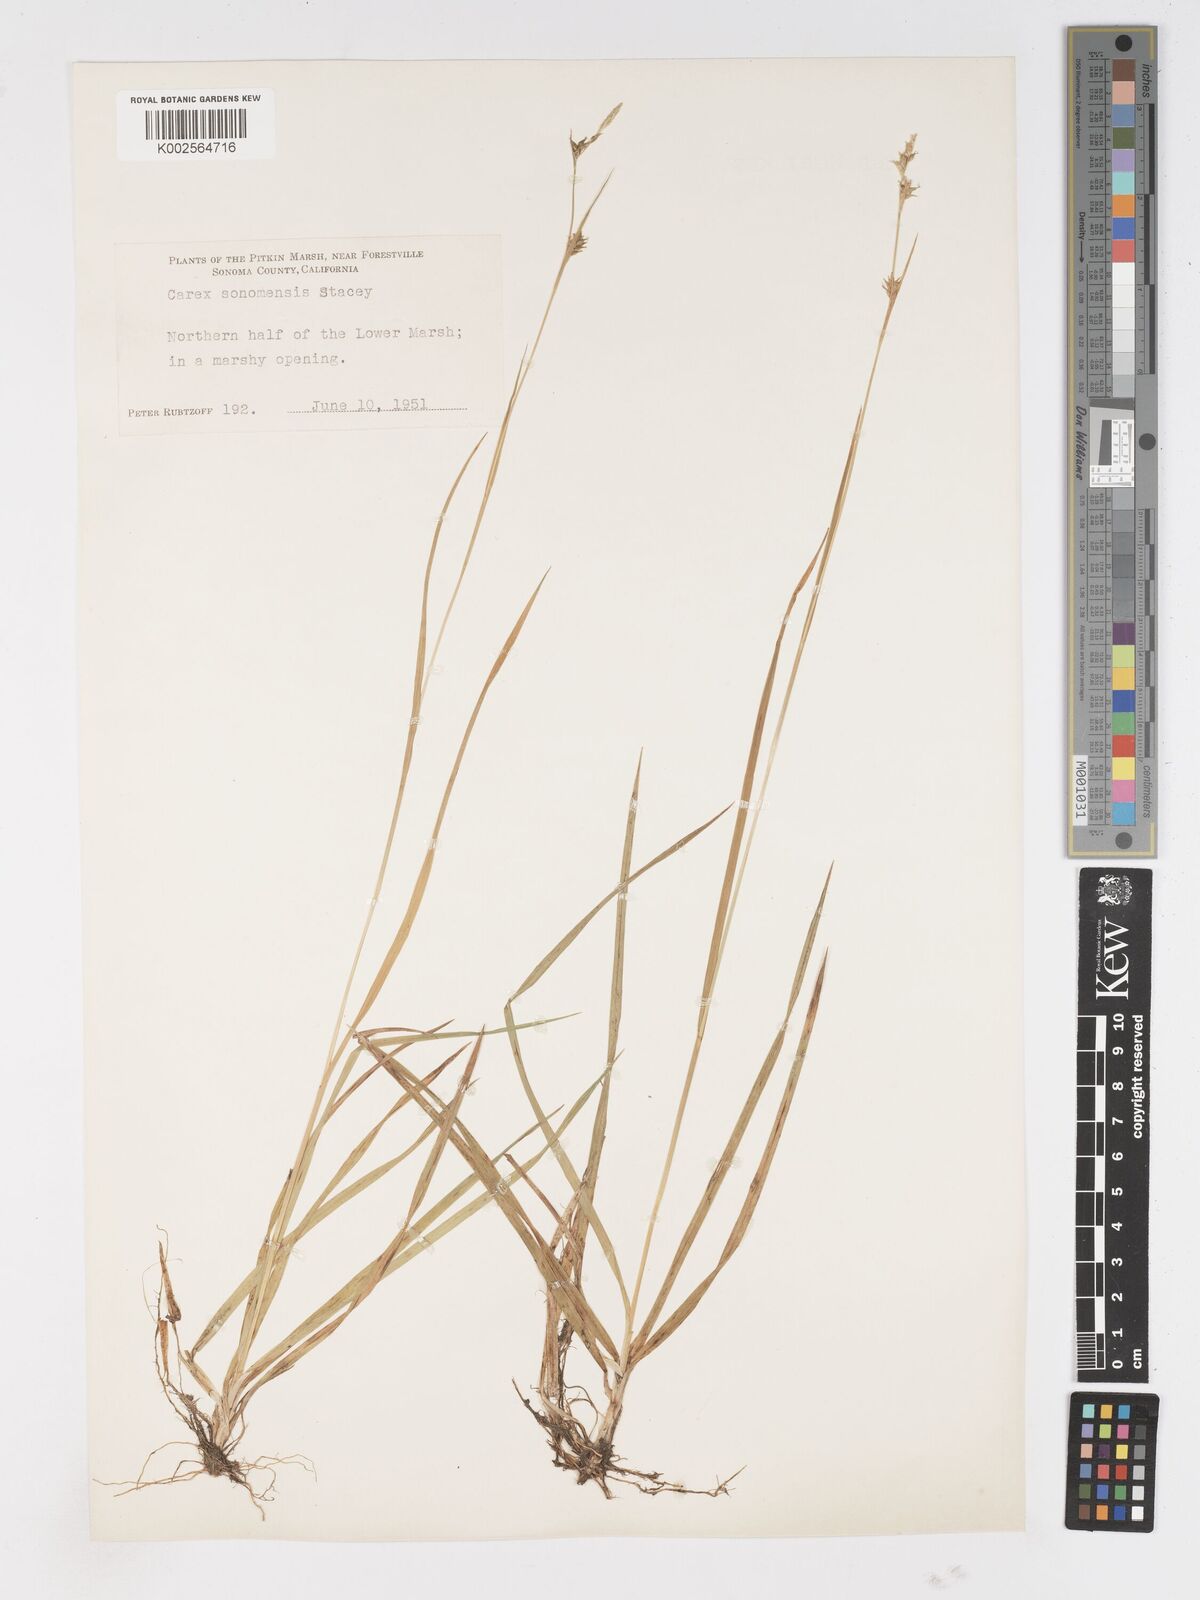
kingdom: Plantae
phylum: Tracheophyta
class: Liliopsida
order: Poales
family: Cyperaceae
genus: Carex
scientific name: Carex lemmonii
